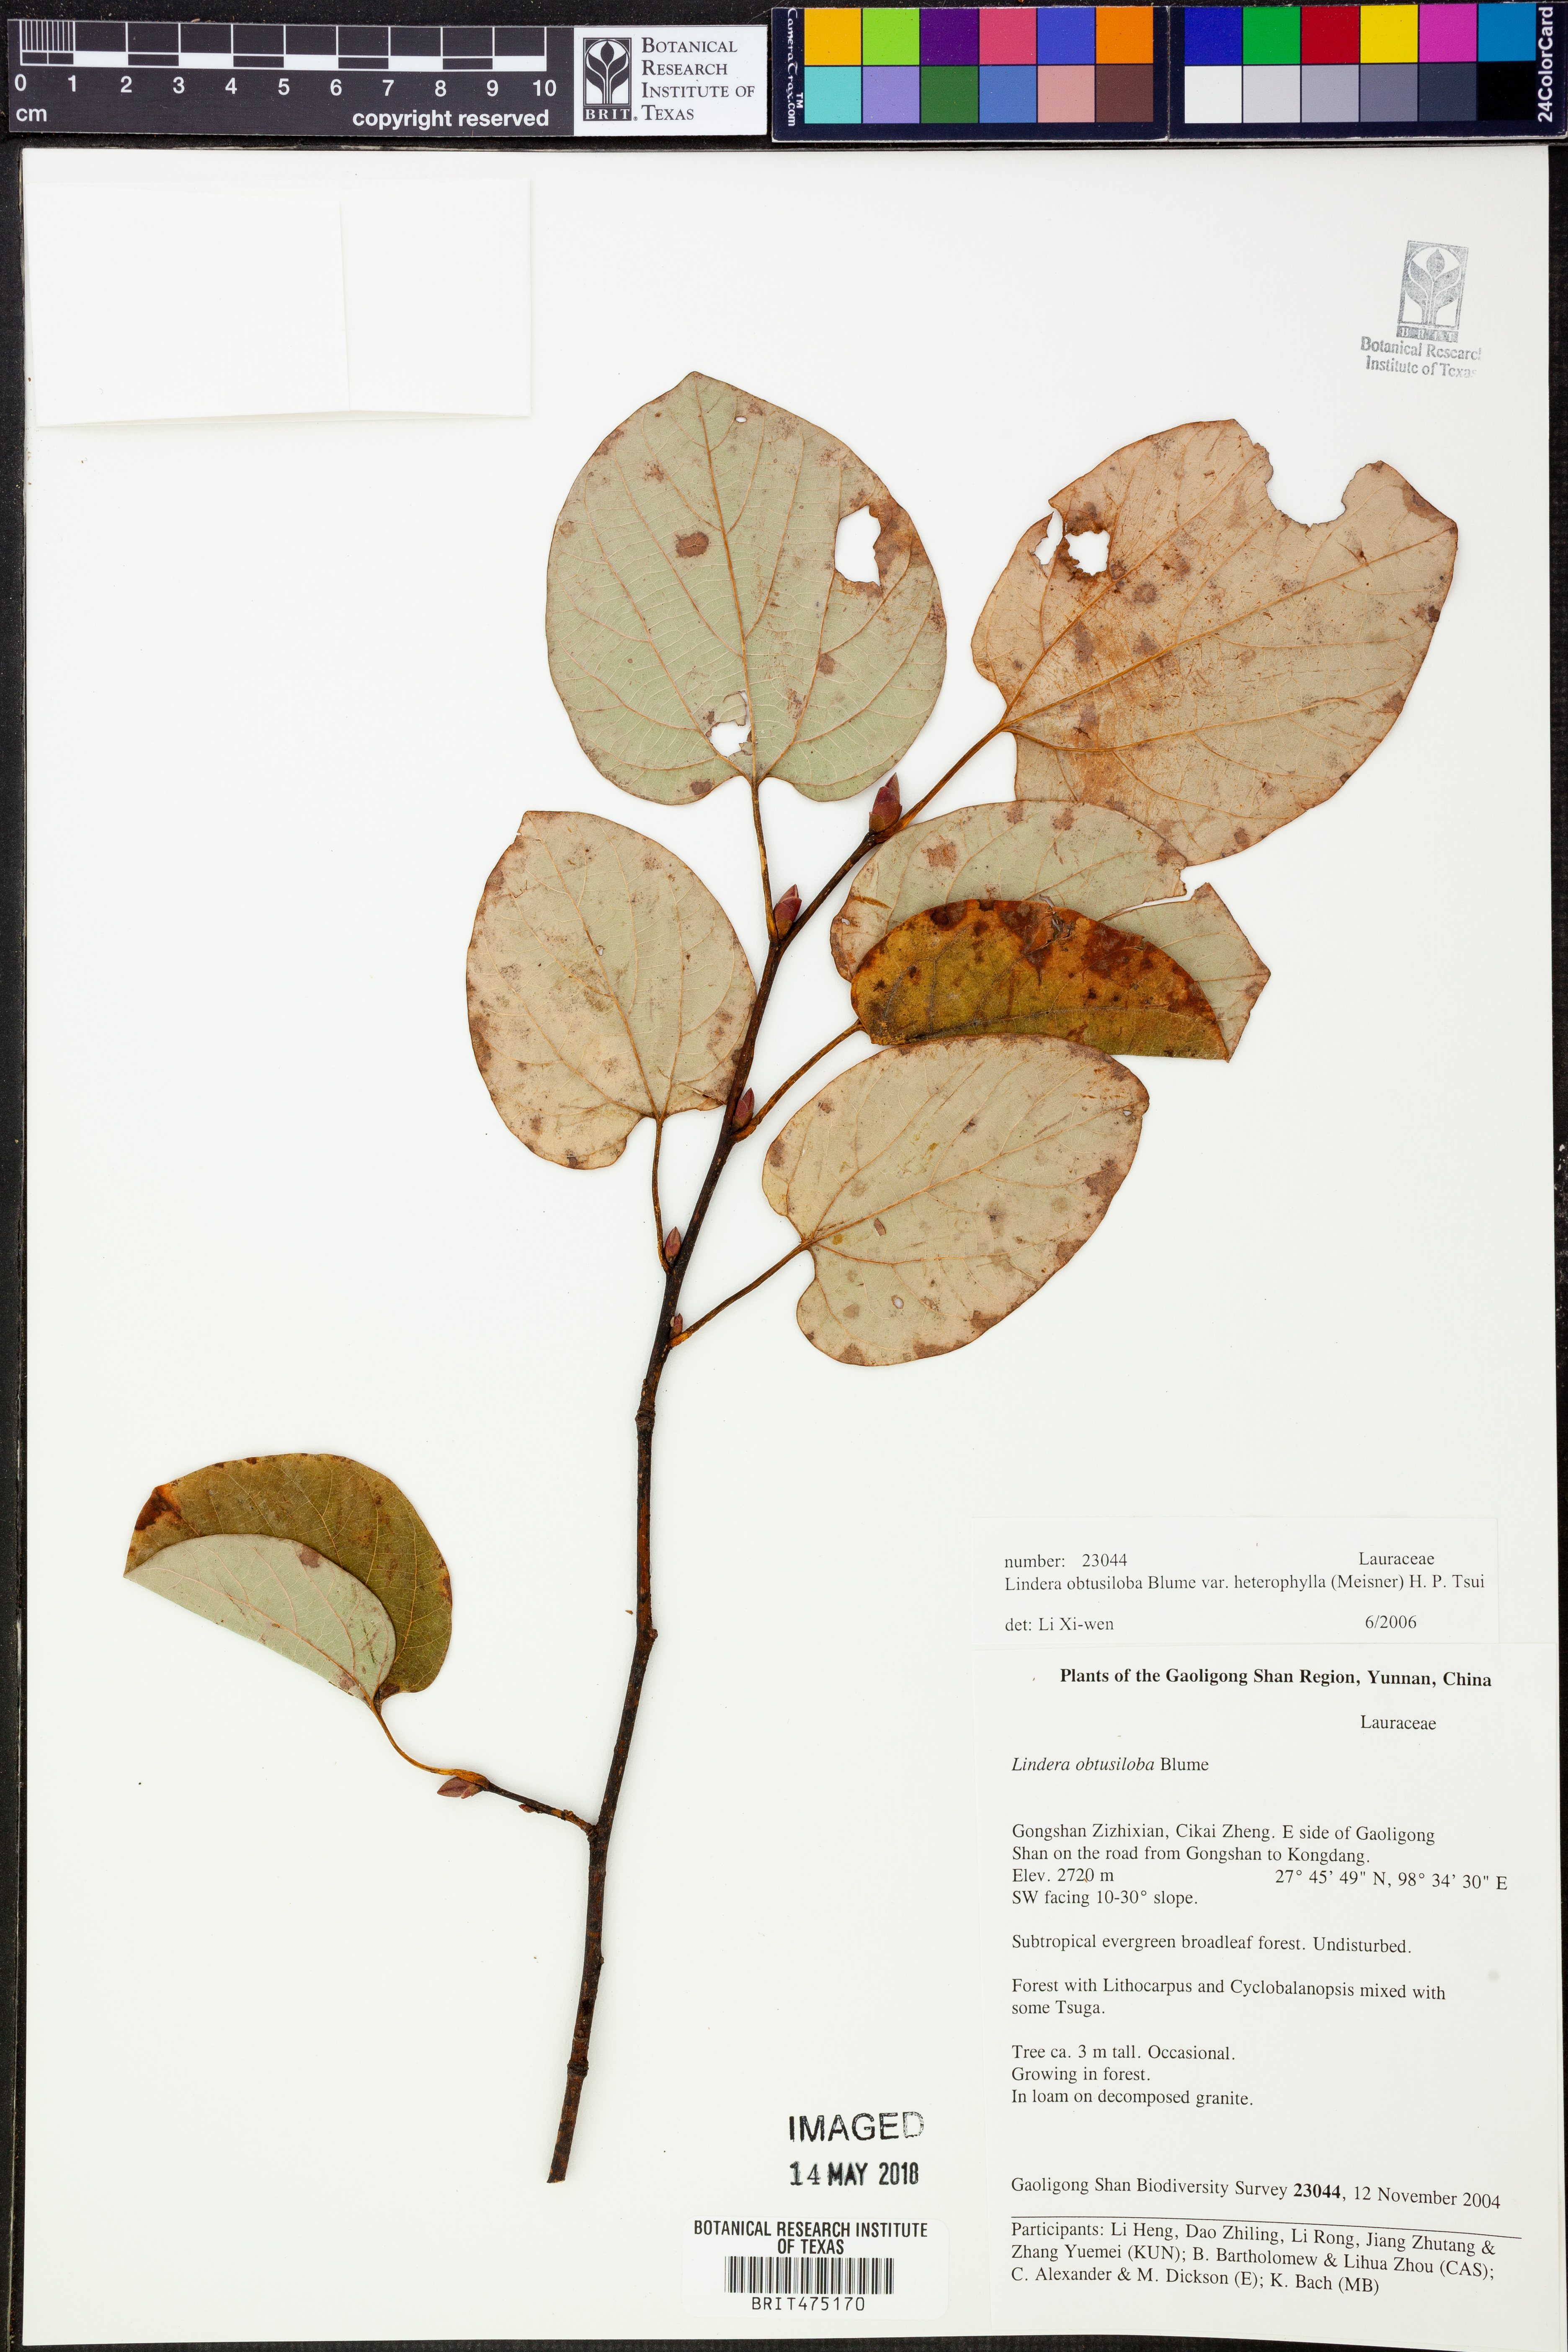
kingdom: Plantae
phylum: Tracheophyta
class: Magnoliopsida
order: Laurales
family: Lauraceae
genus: Lindera
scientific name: Lindera obtusiloba
